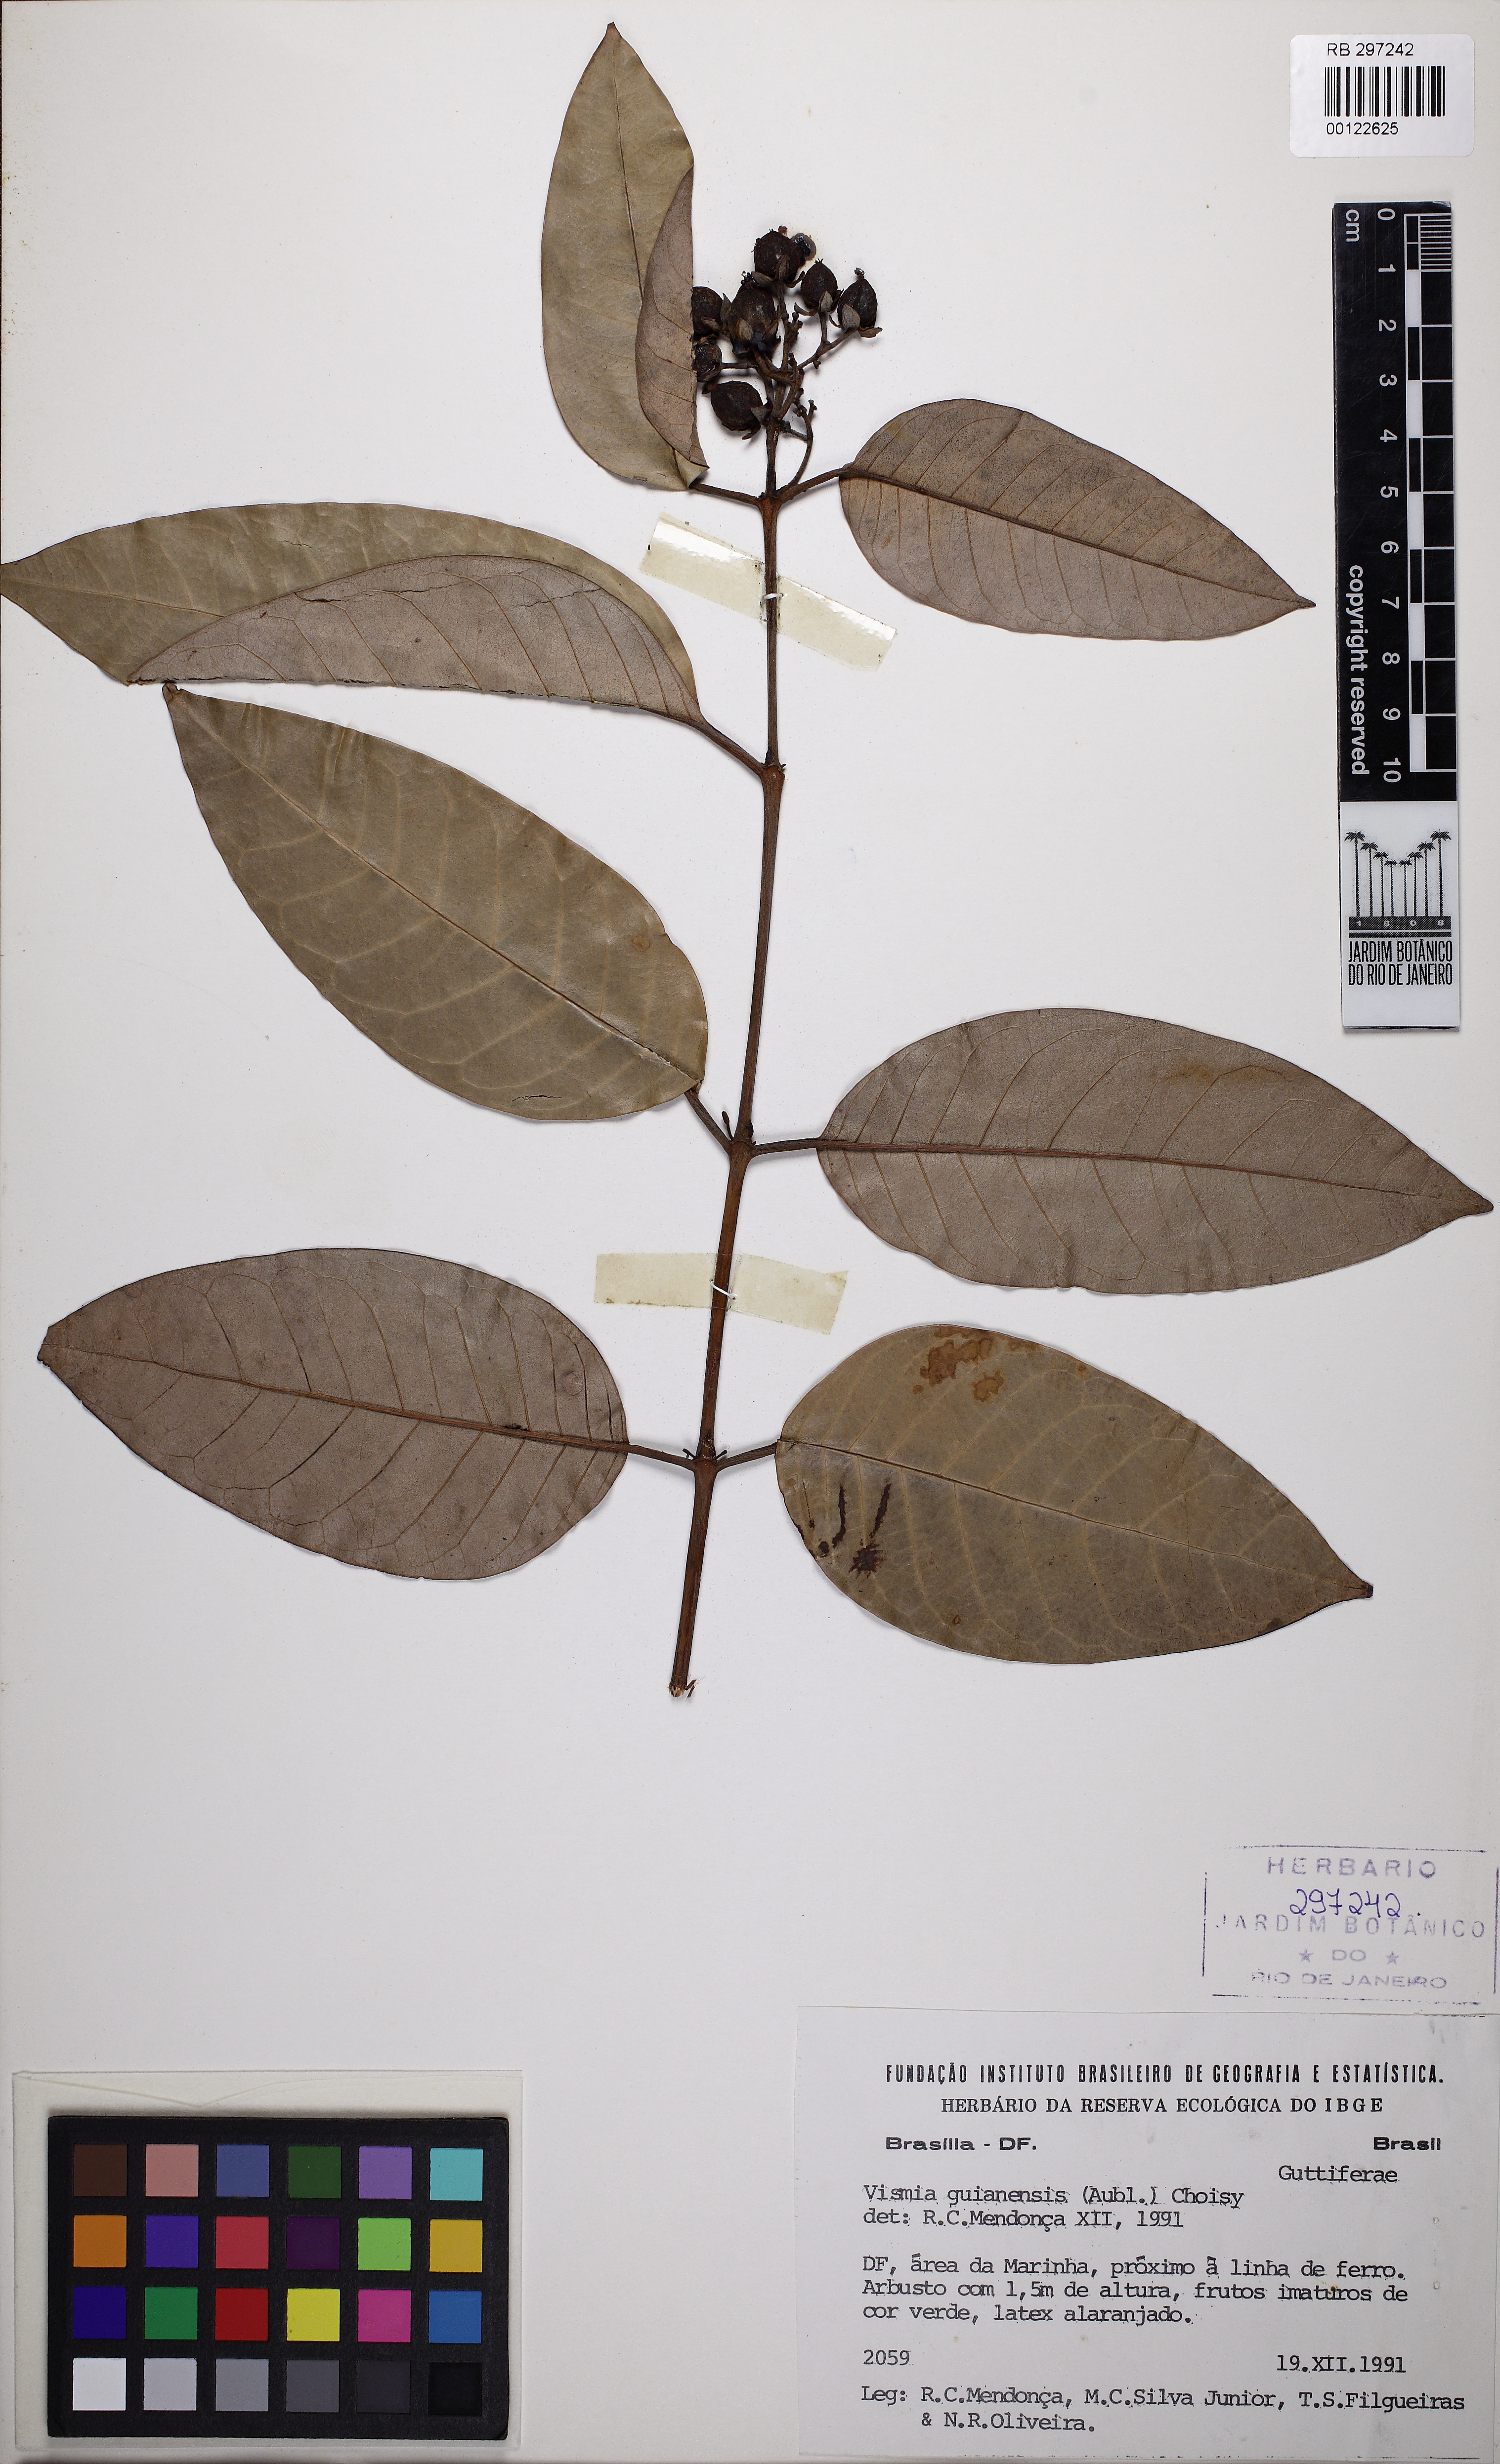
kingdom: Plantae
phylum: Tracheophyta
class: Magnoliopsida
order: Malpighiales
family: Hypericaceae
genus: Vismia
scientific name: Vismia gracilis
